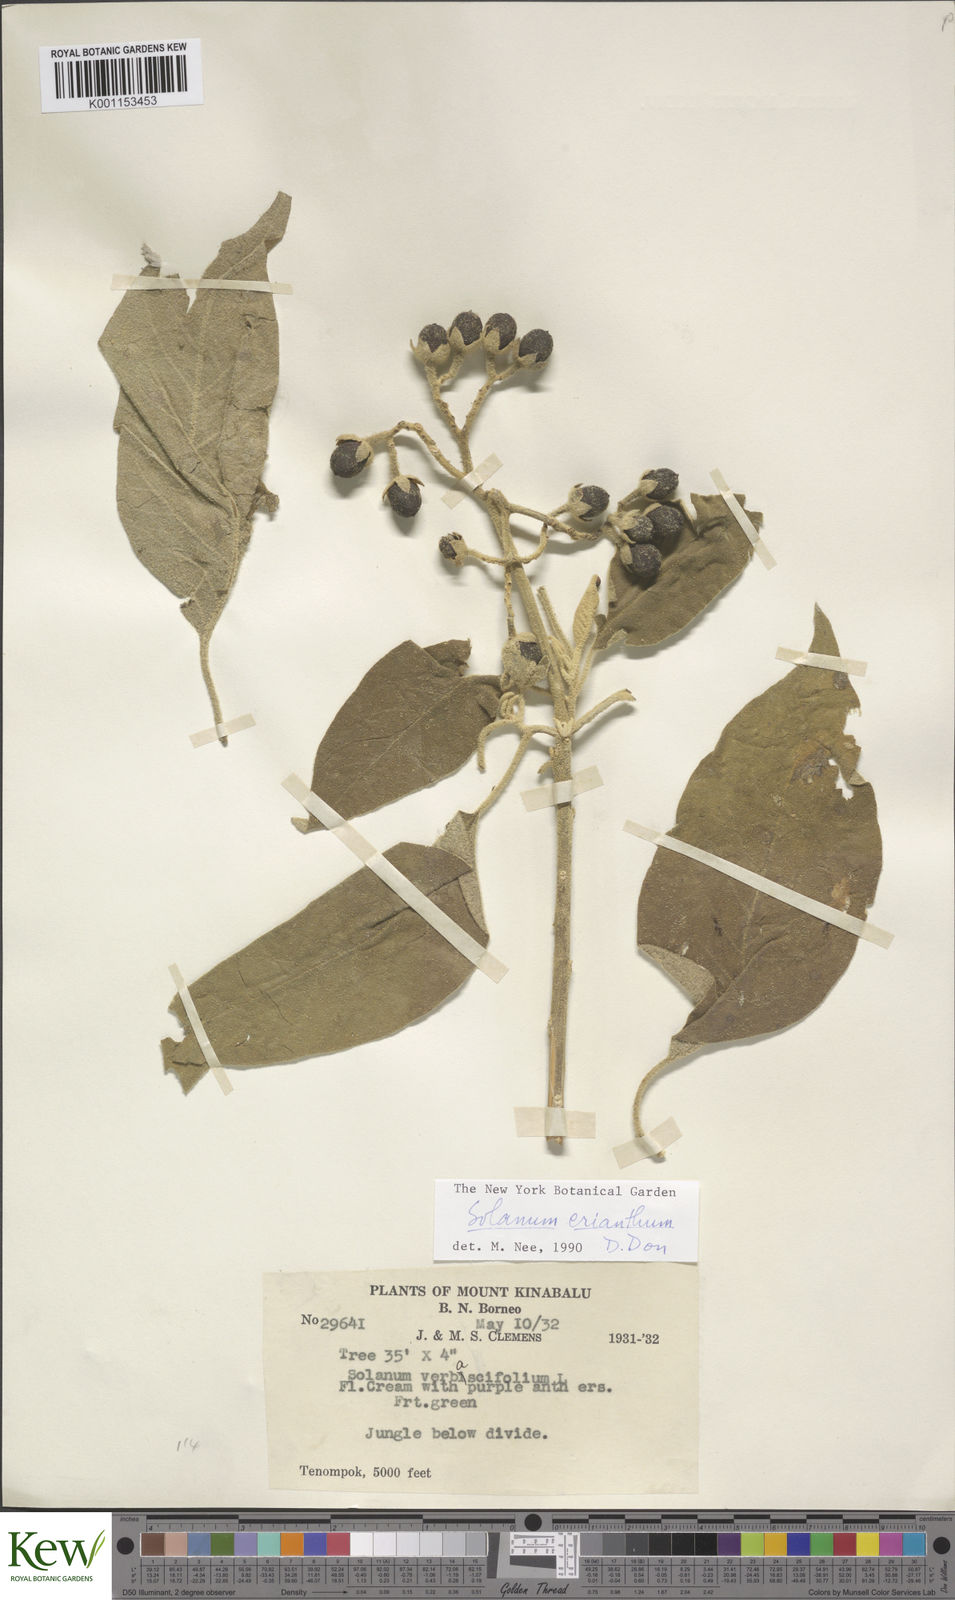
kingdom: Plantae
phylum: Tracheophyta
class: Magnoliopsida
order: Solanales
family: Solanaceae
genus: Solanum
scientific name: Solanum erianthum
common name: Tobacco-tree
